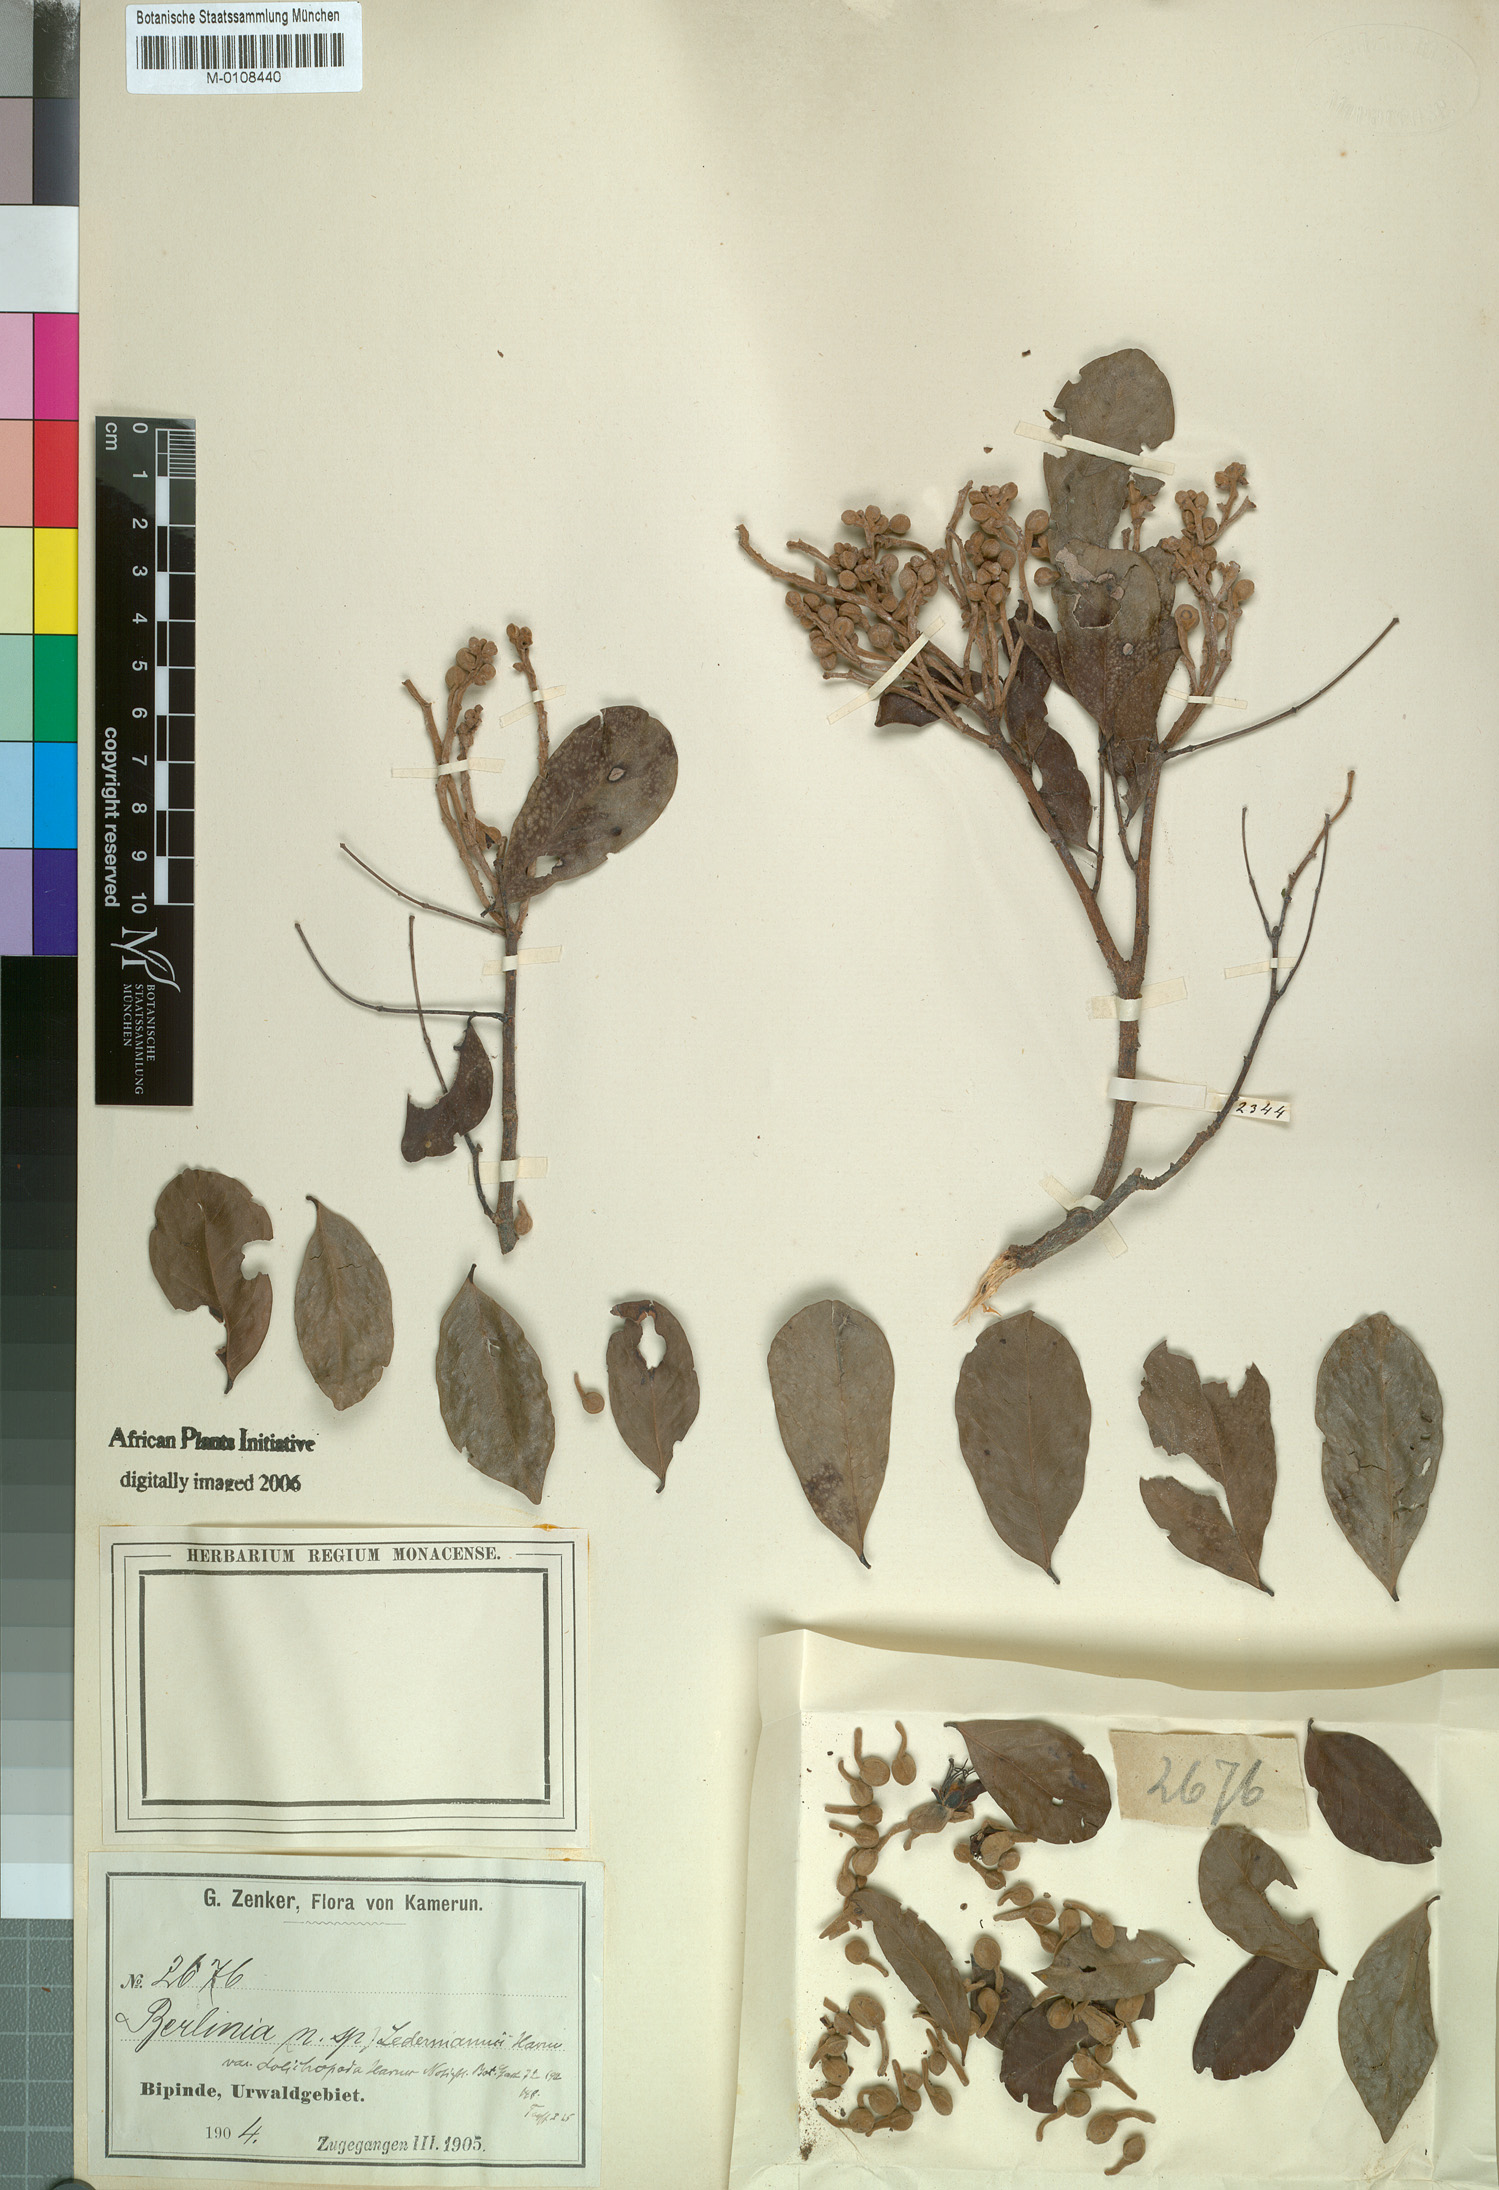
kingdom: Plantae
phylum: Tracheophyta
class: Magnoliopsida
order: Fabales
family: Fabaceae
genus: Julbernardia
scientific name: Julbernardia seretii
